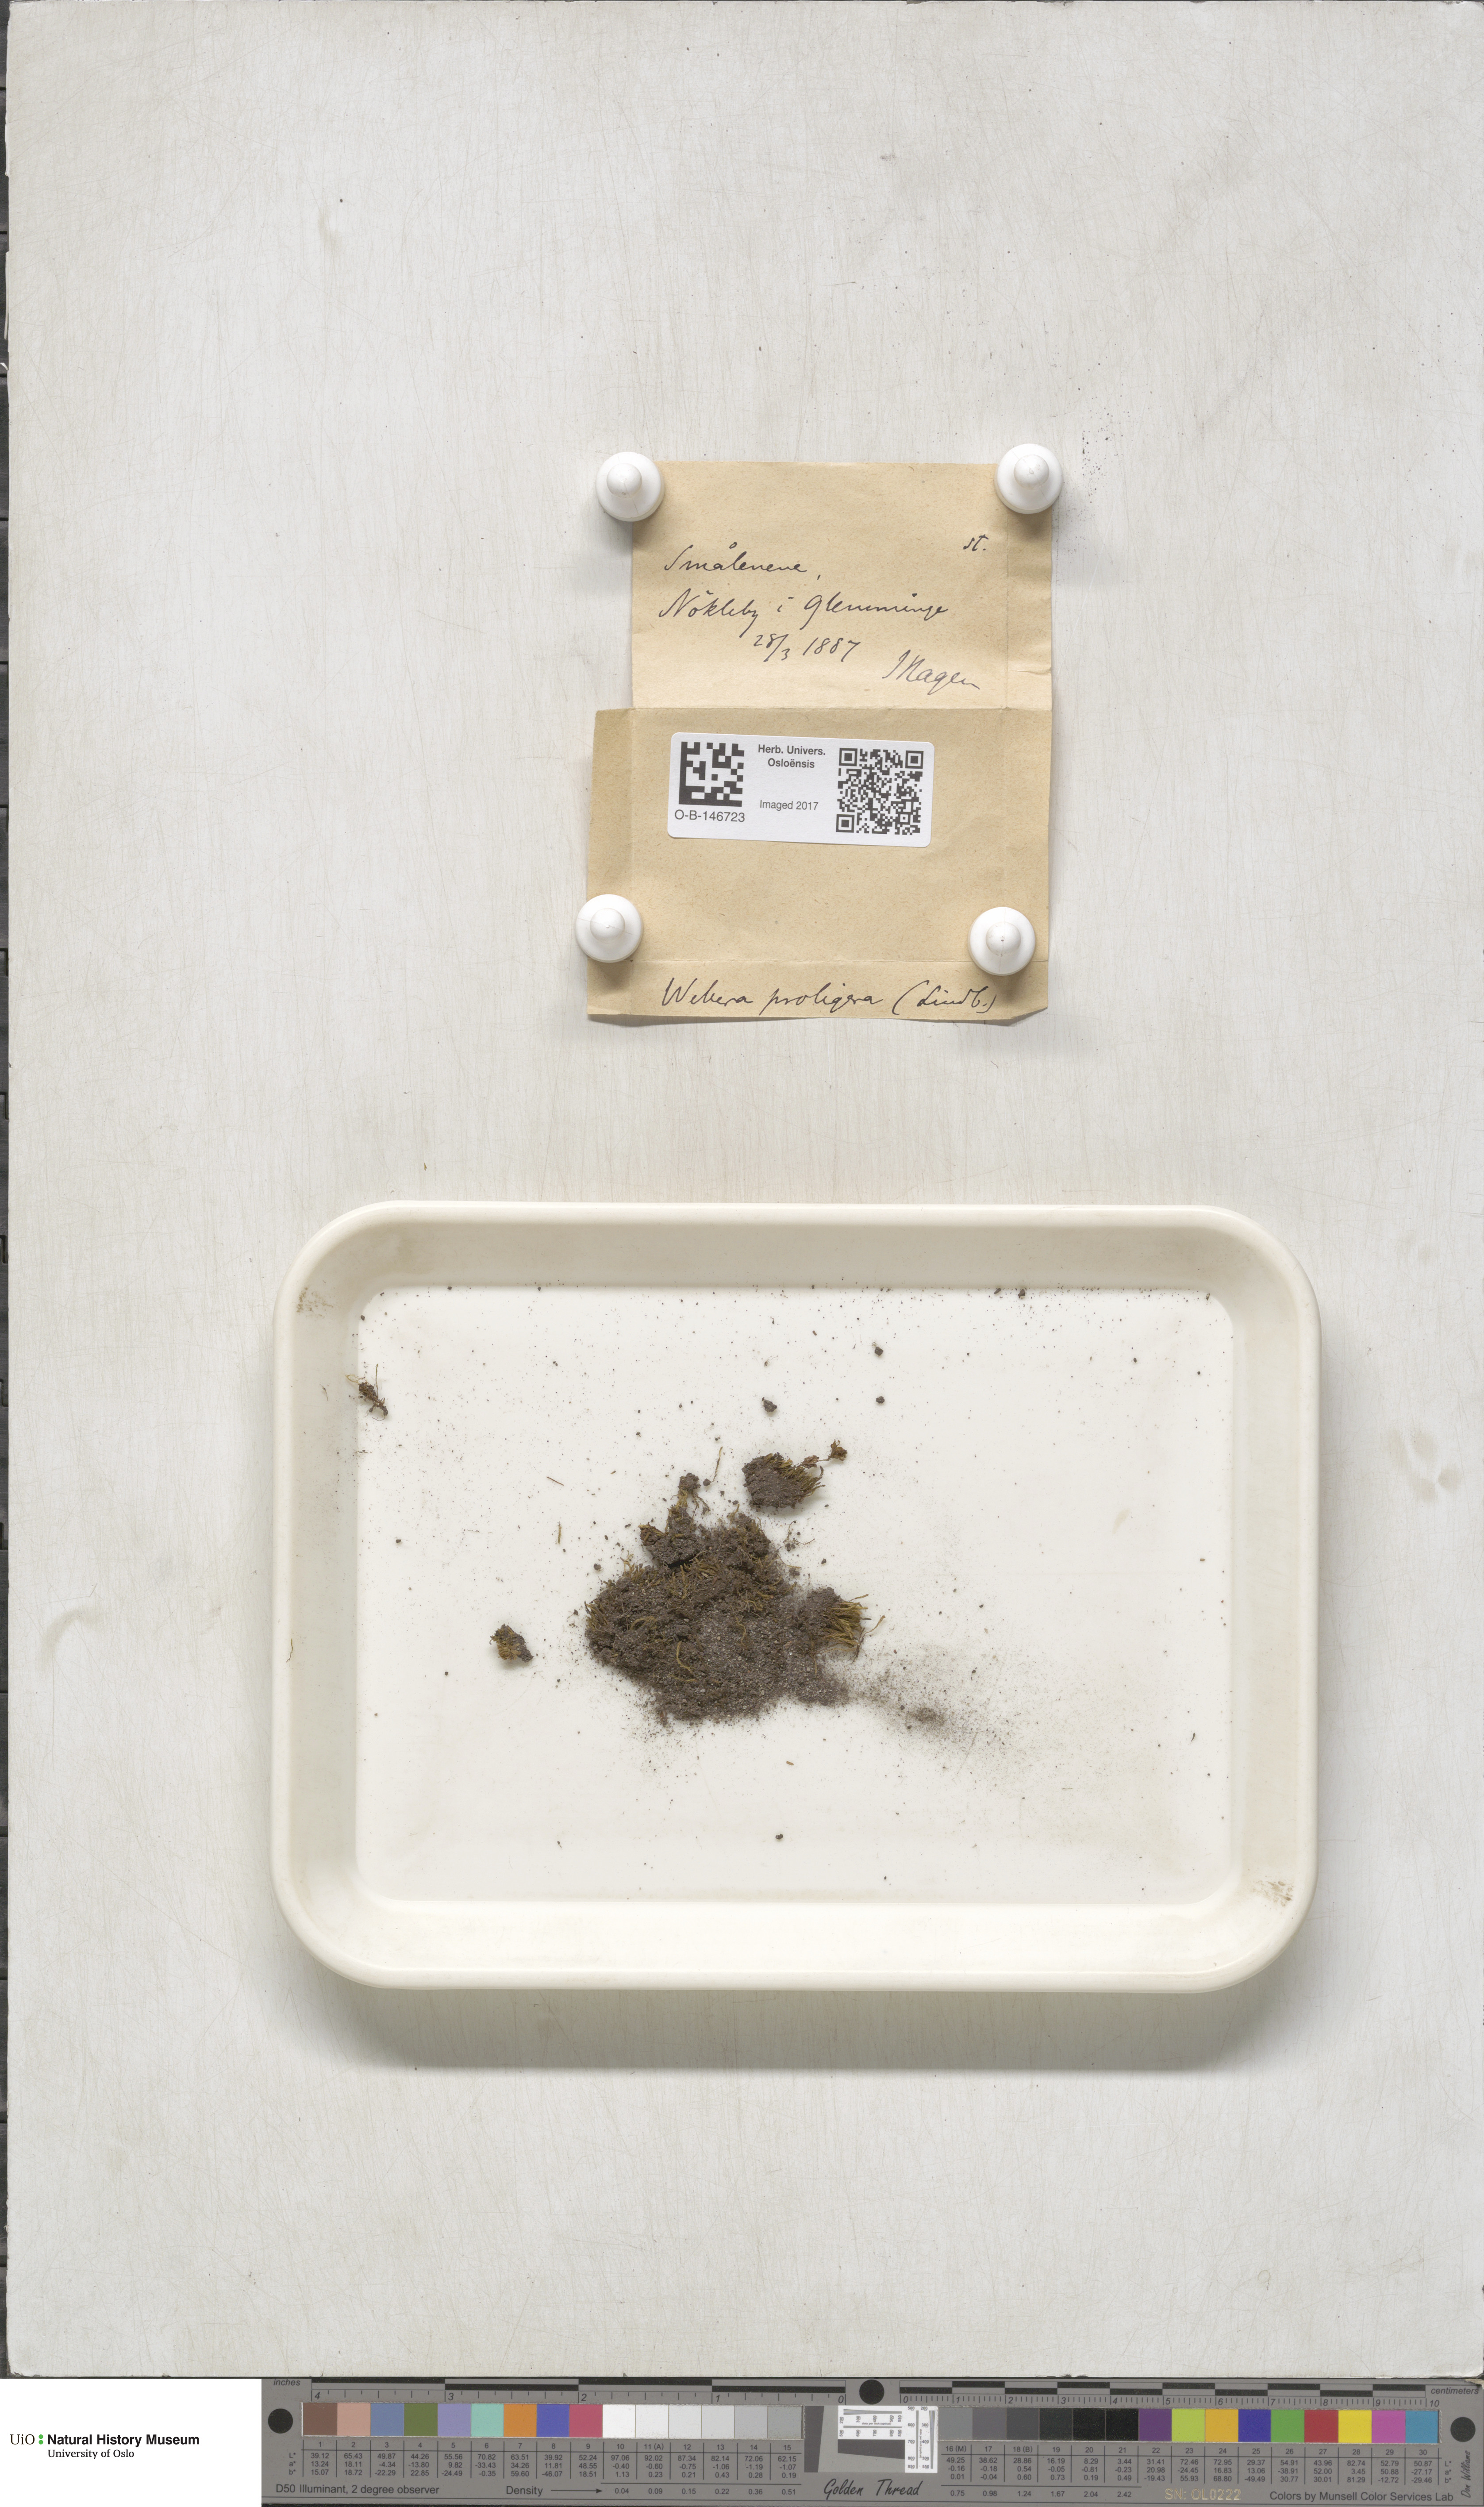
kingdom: Plantae
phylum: Bryophyta
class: Bryopsida
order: Bryales
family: Mniaceae
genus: Pohlia
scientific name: Pohlia proligera
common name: Cottony nodding moss
